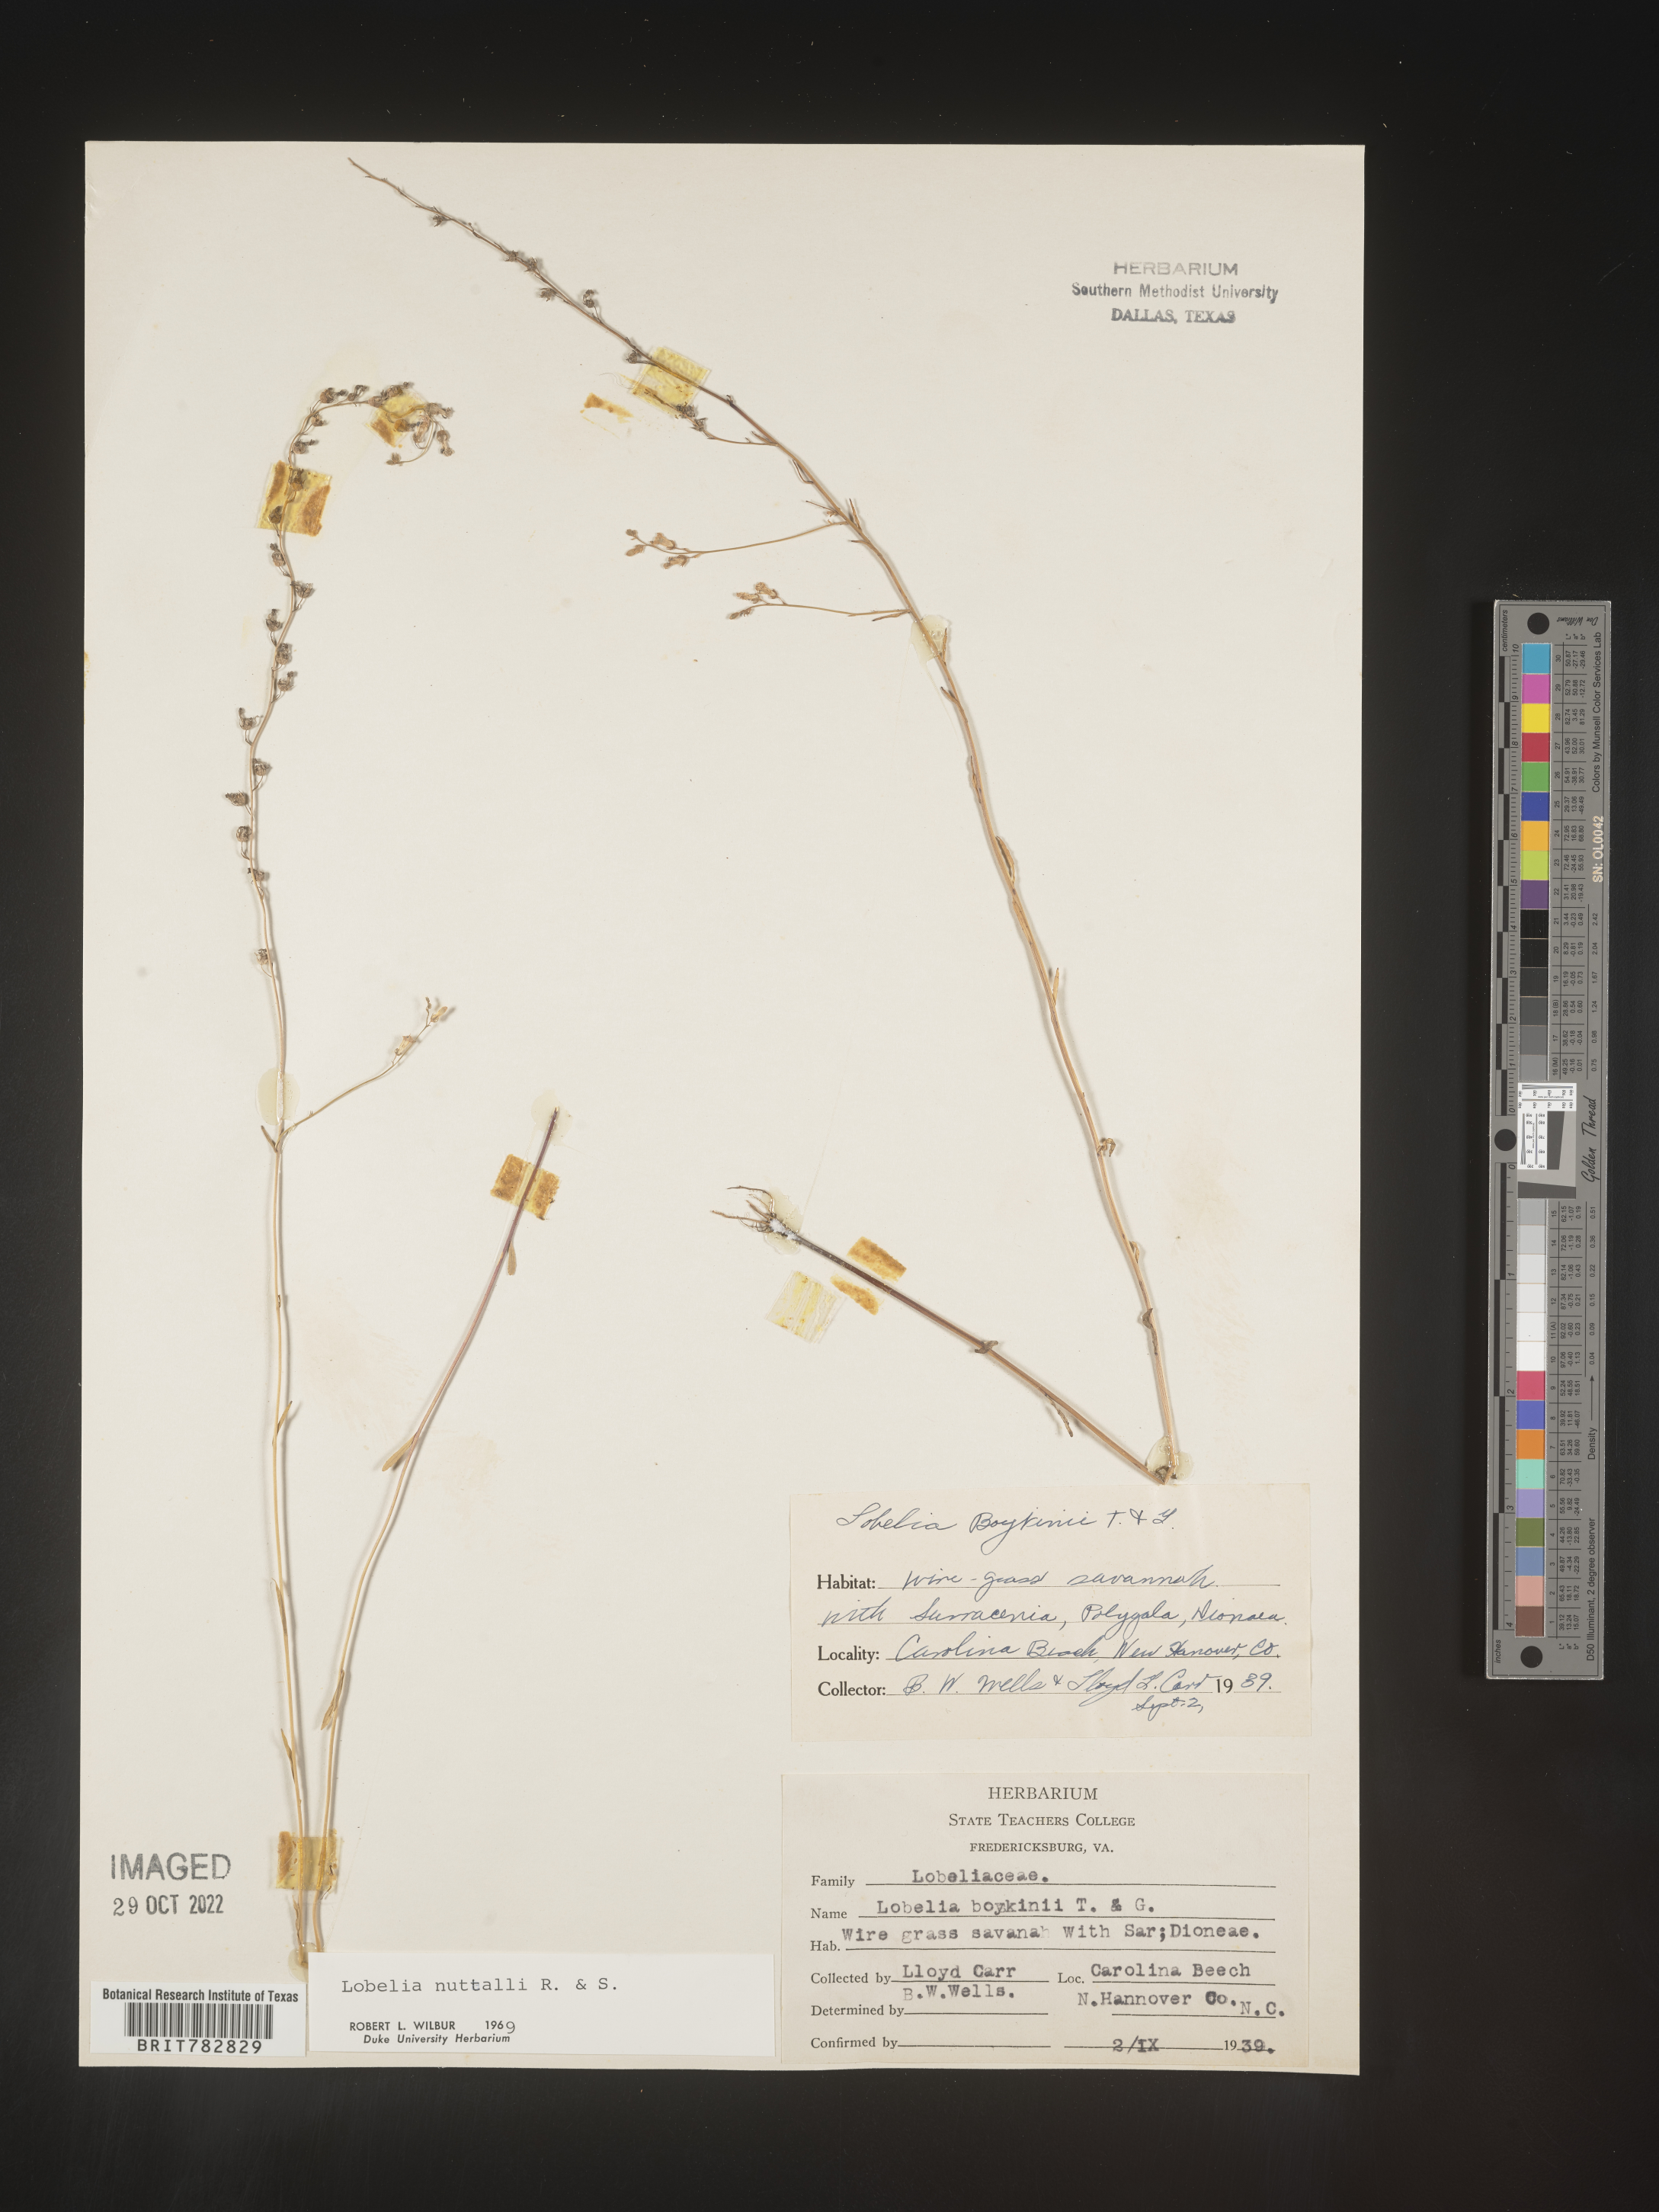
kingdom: Plantae
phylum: Tracheophyta
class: Magnoliopsida
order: Asterales
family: Campanulaceae
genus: Lobelia
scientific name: Lobelia nuttallii
